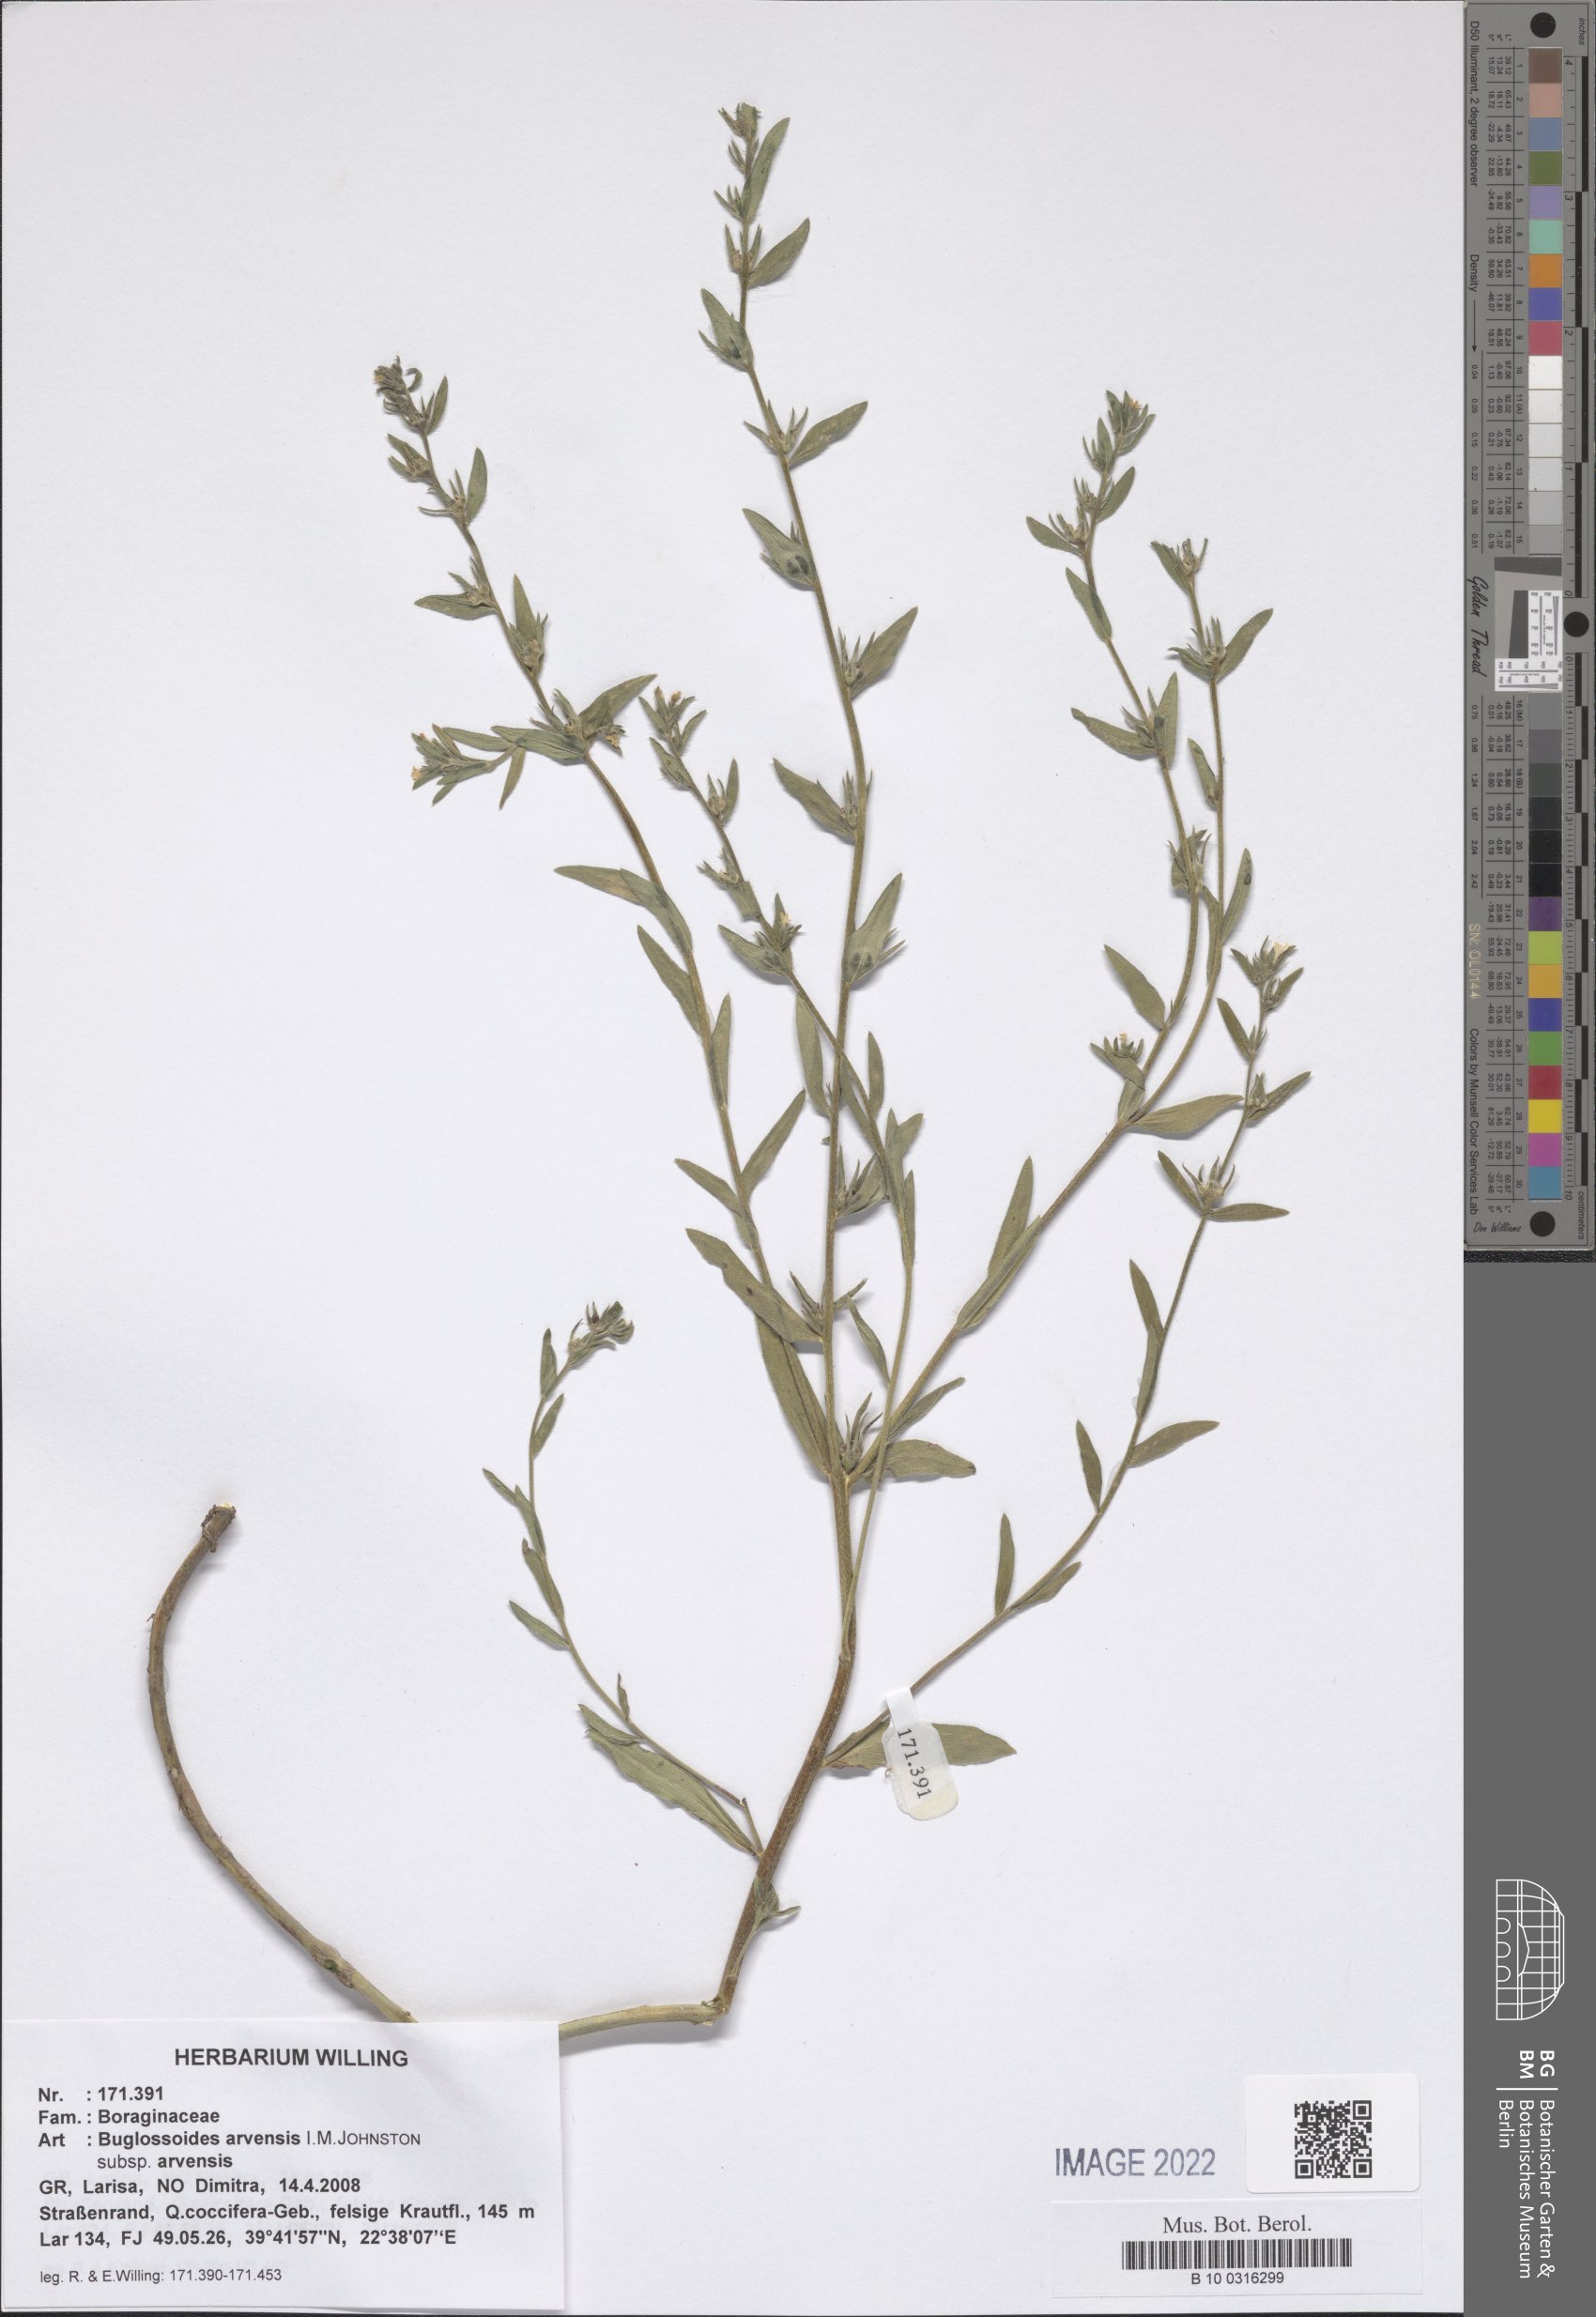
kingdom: Plantae
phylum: Tracheophyta
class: Magnoliopsida
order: Boraginales
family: Boraginaceae
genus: Buglossoides
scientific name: Buglossoides arvensis
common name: Corn gromwell
